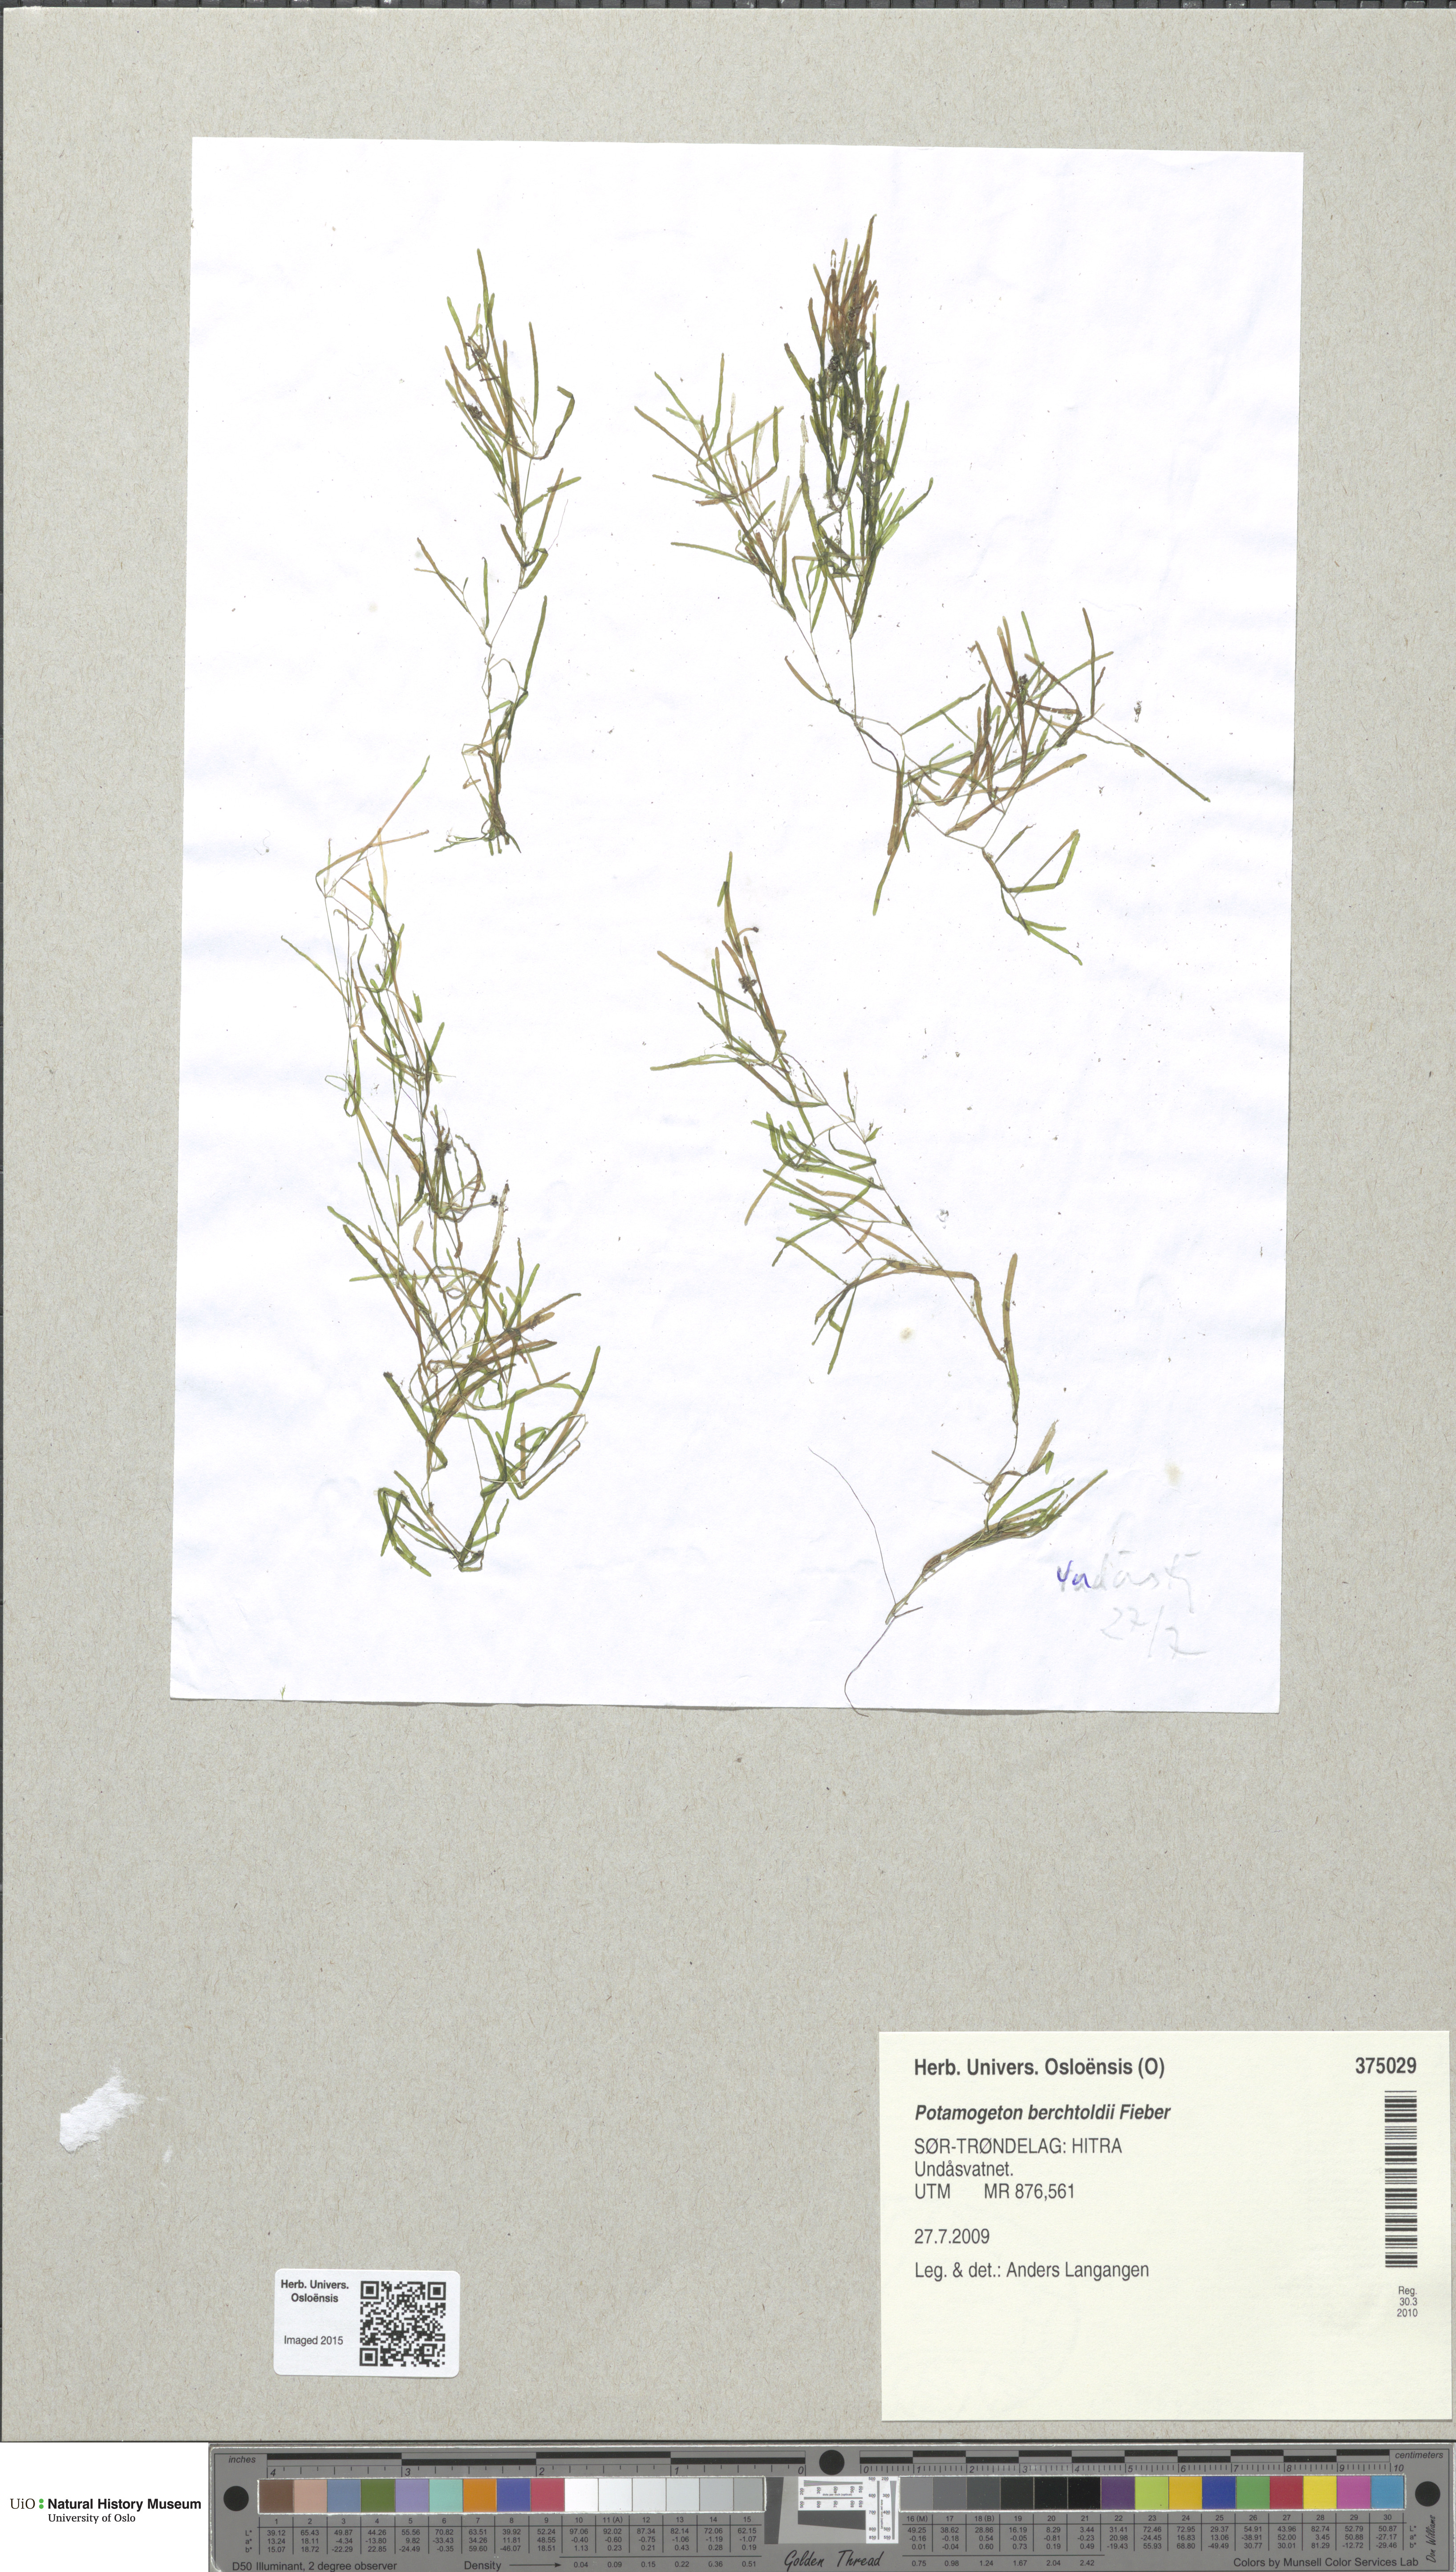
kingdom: Plantae
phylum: Tracheophyta
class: Liliopsida
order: Alismatales
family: Potamogetonaceae
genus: Potamogeton
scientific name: Potamogeton berchtoldii
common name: Small pondweed
